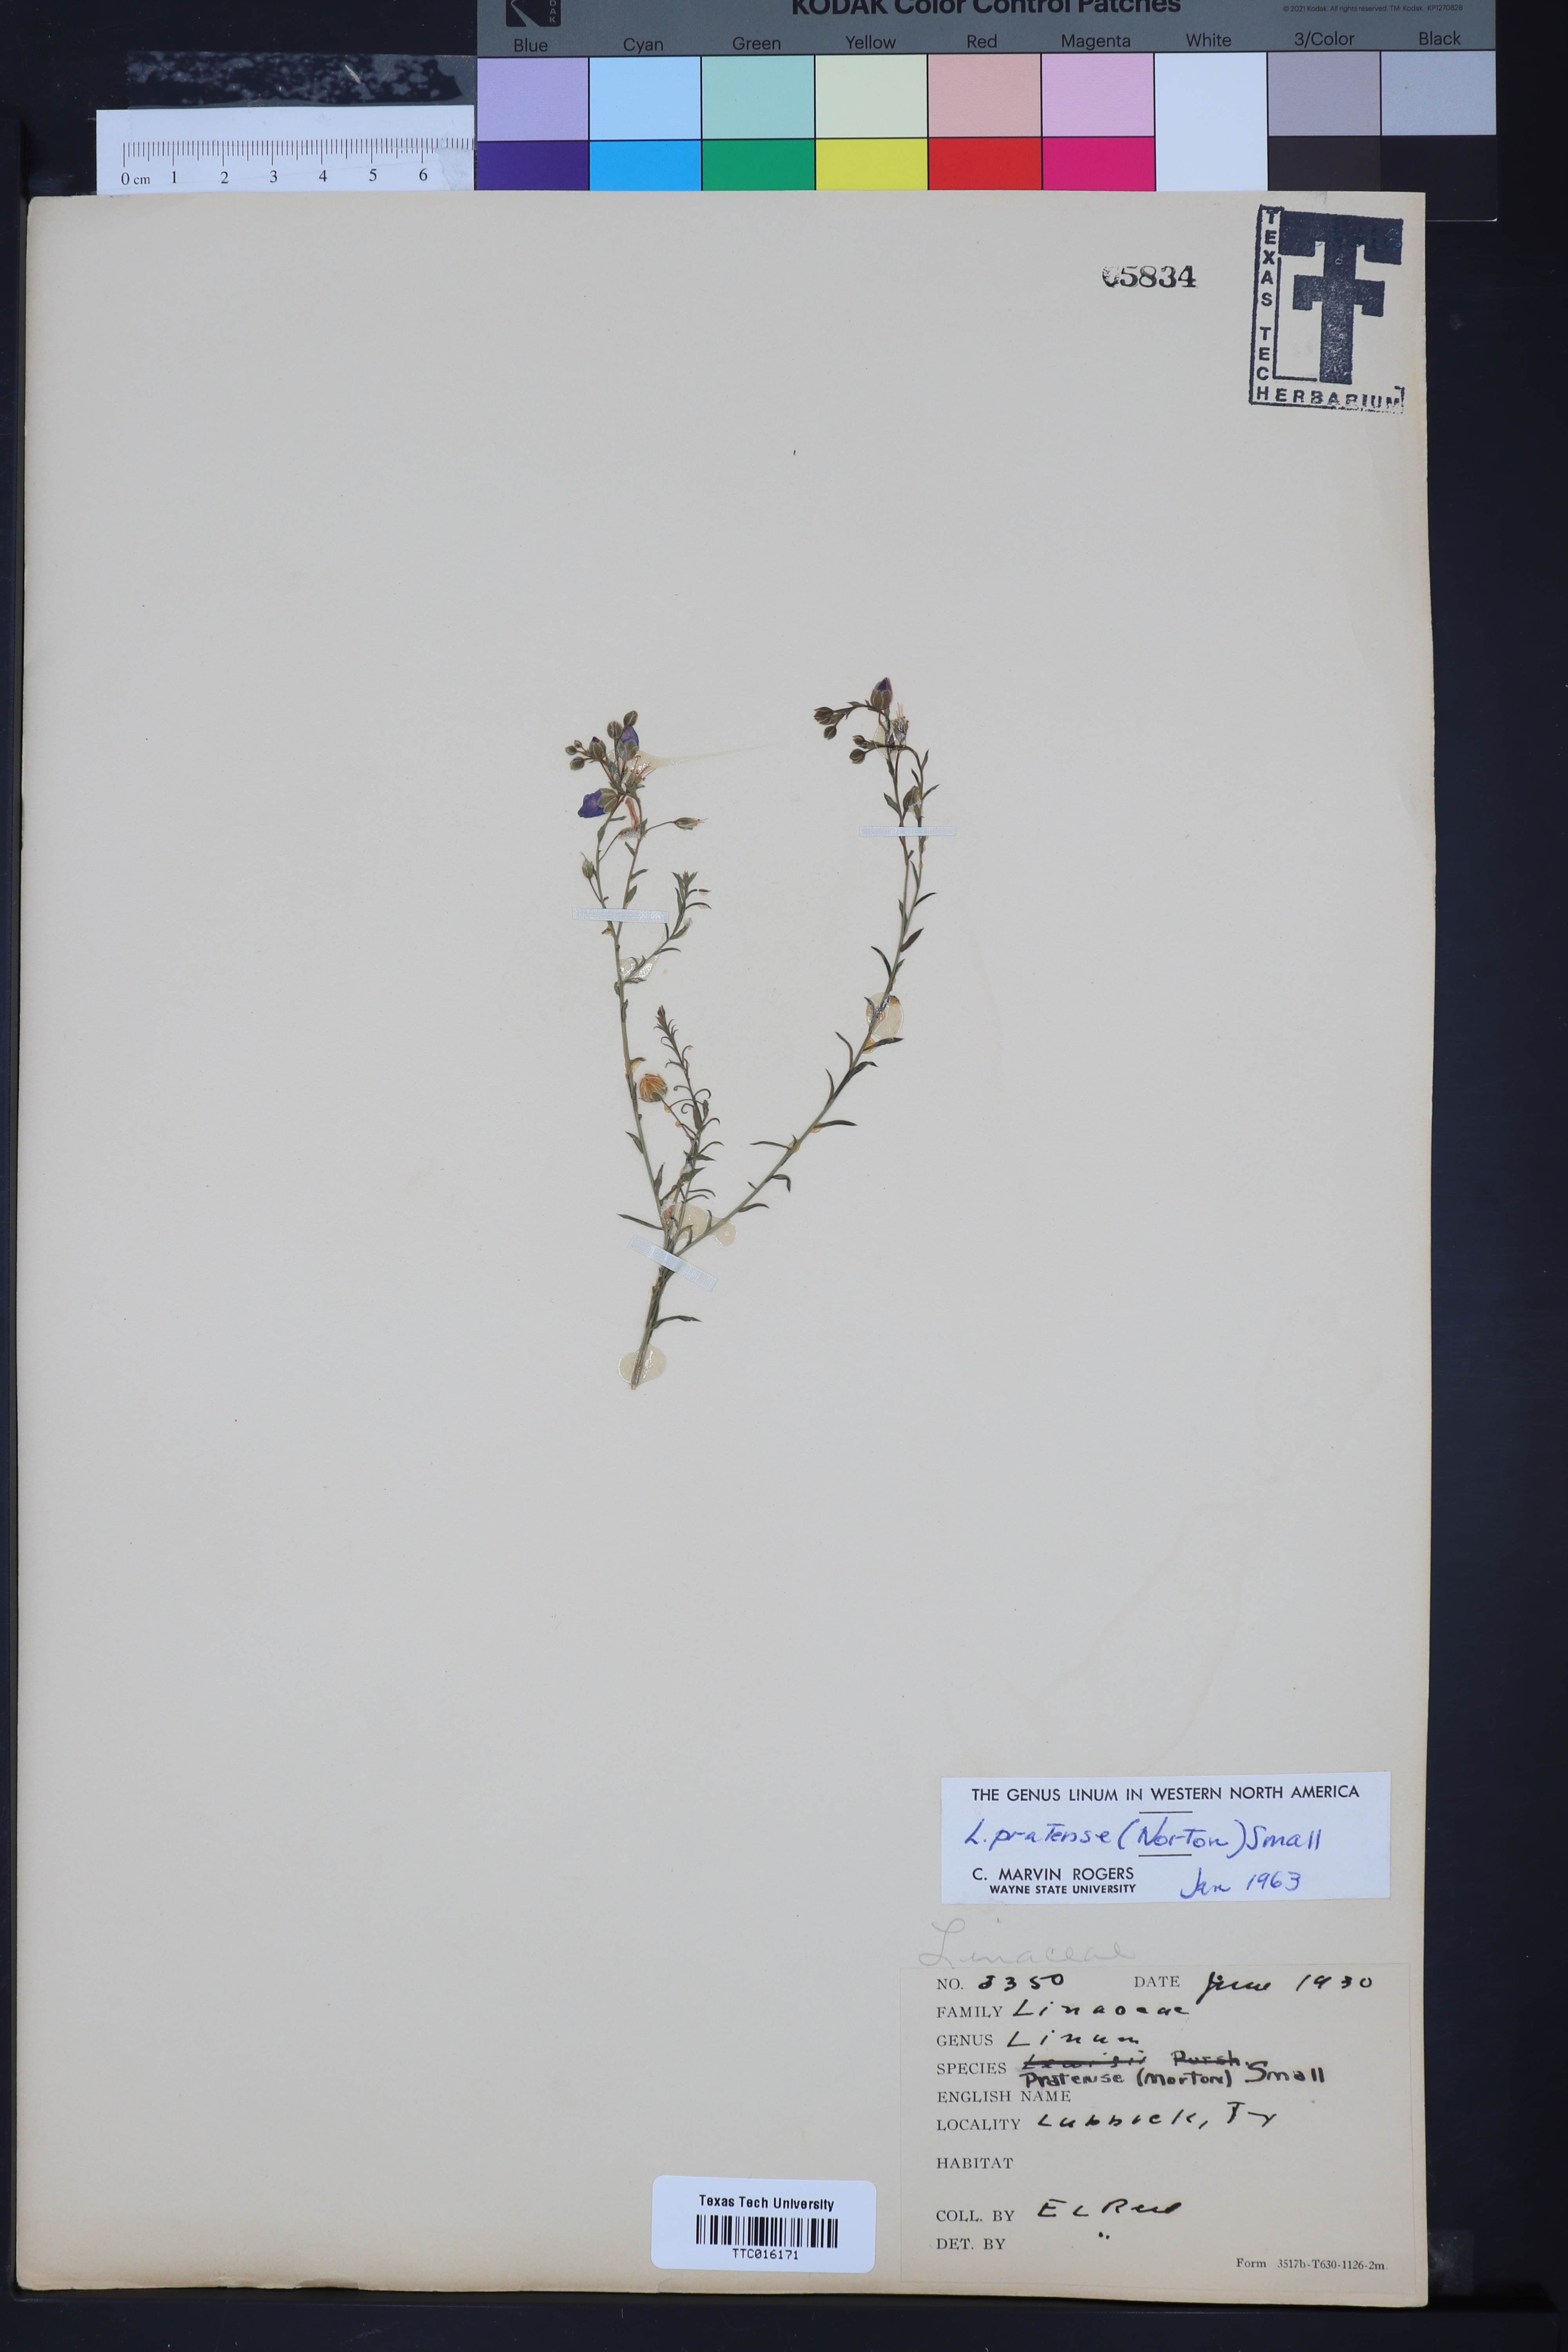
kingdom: Plantae
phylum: Tracheophyta
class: Magnoliopsida
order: Malpighiales
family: Linaceae
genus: Linum
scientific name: Linum pratense
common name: Norton's flax
